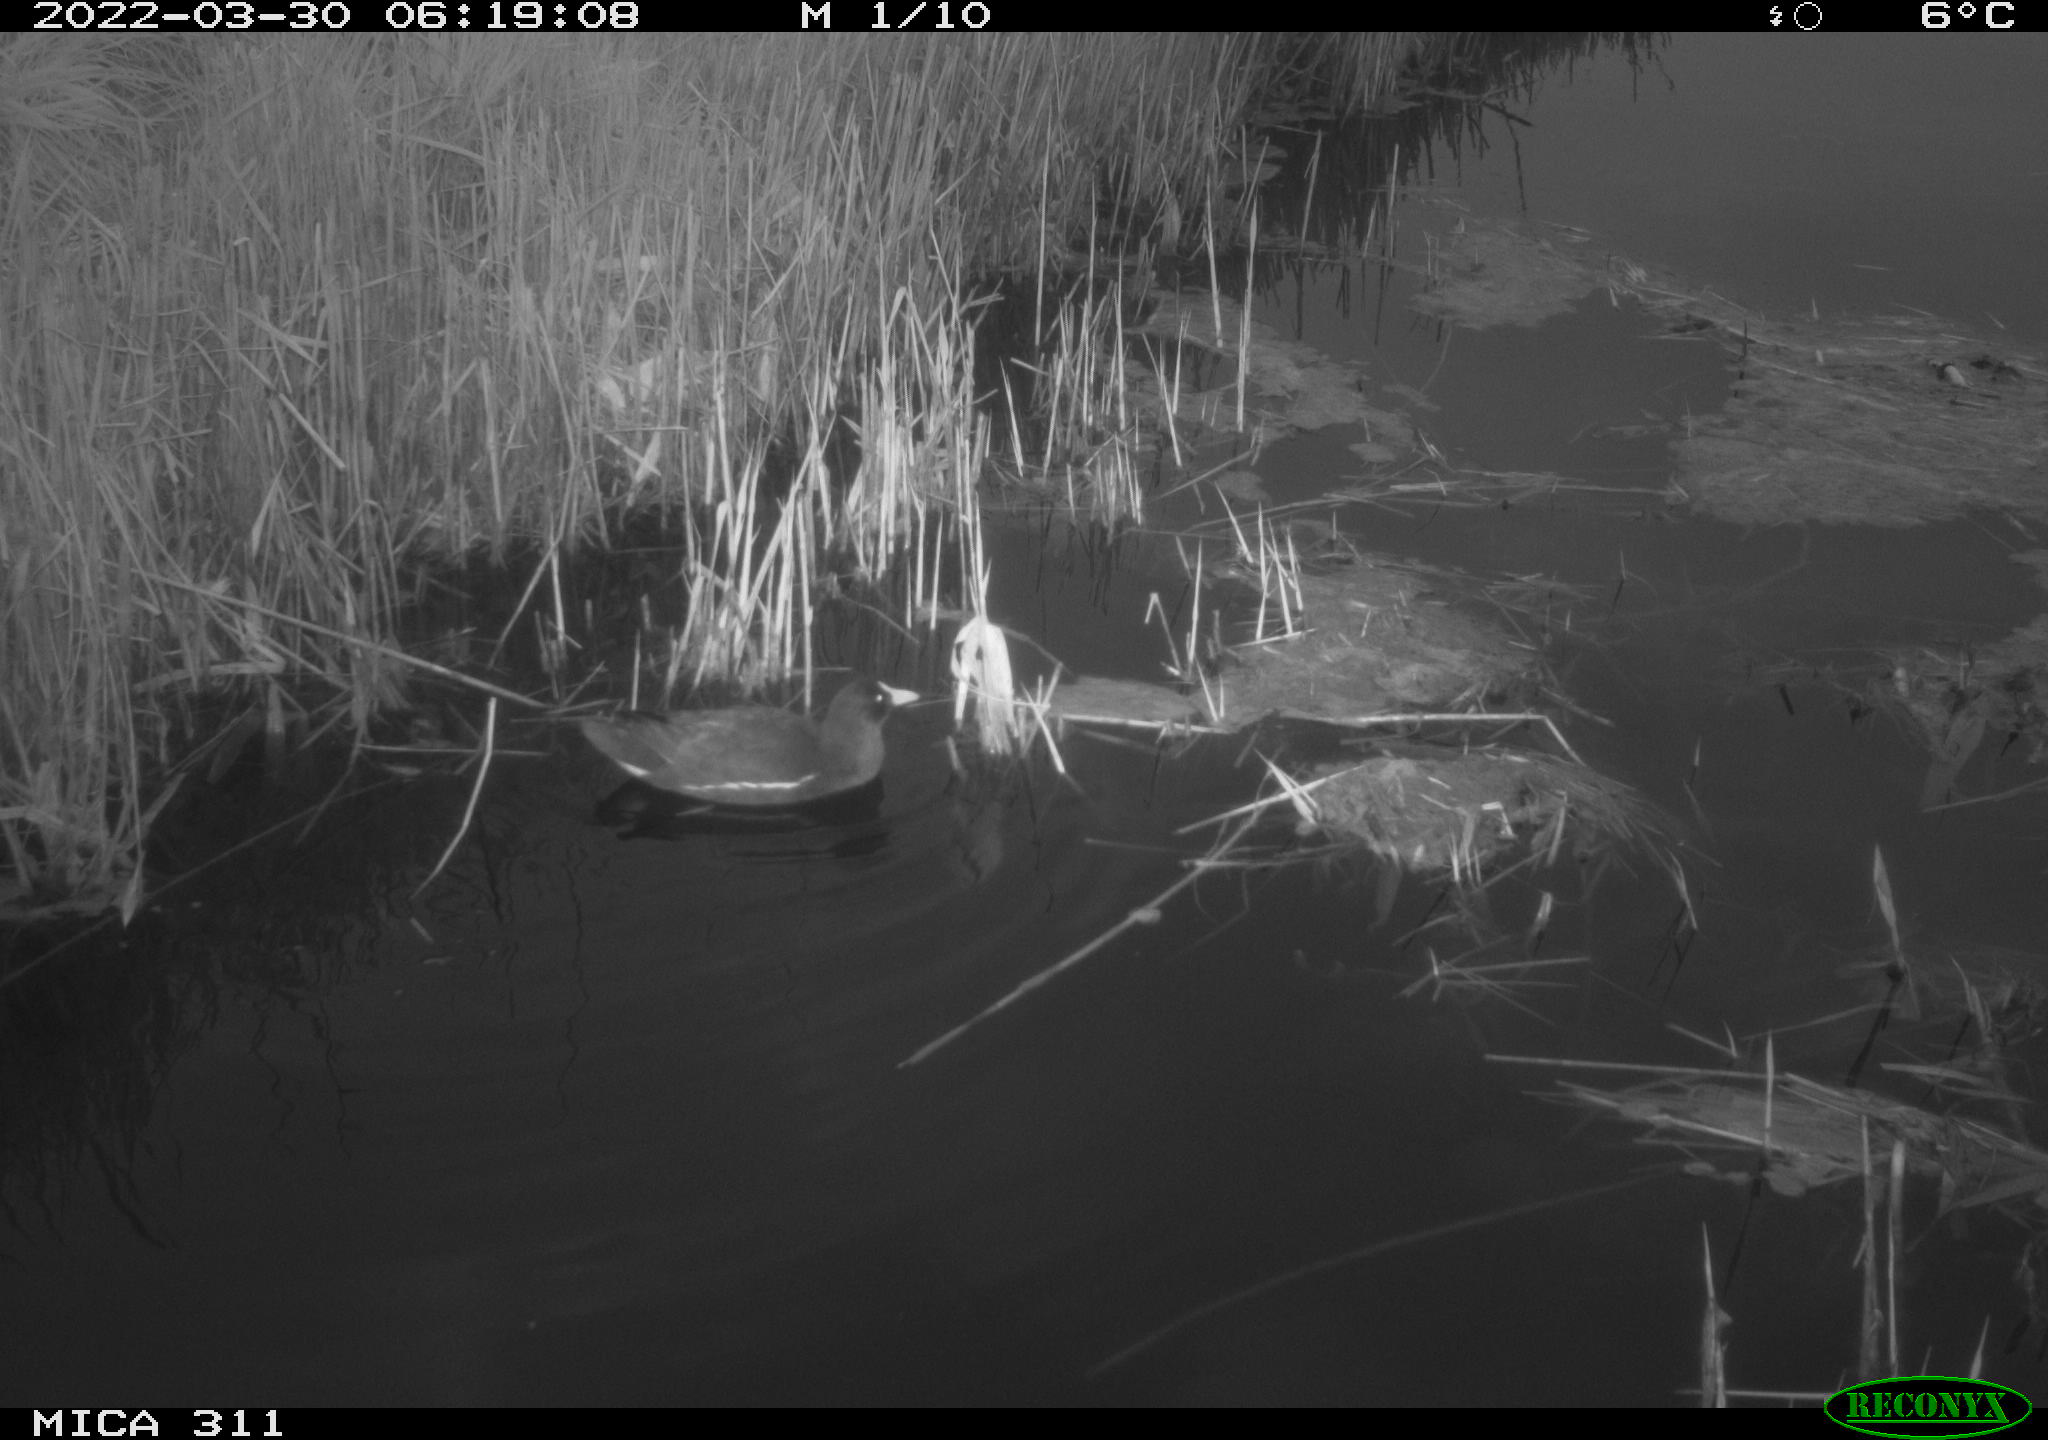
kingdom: Animalia
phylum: Chordata
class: Aves
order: Gruiformes
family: Rallidae
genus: Gallinula
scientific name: Gallinula chloropus
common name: Common moorhen
